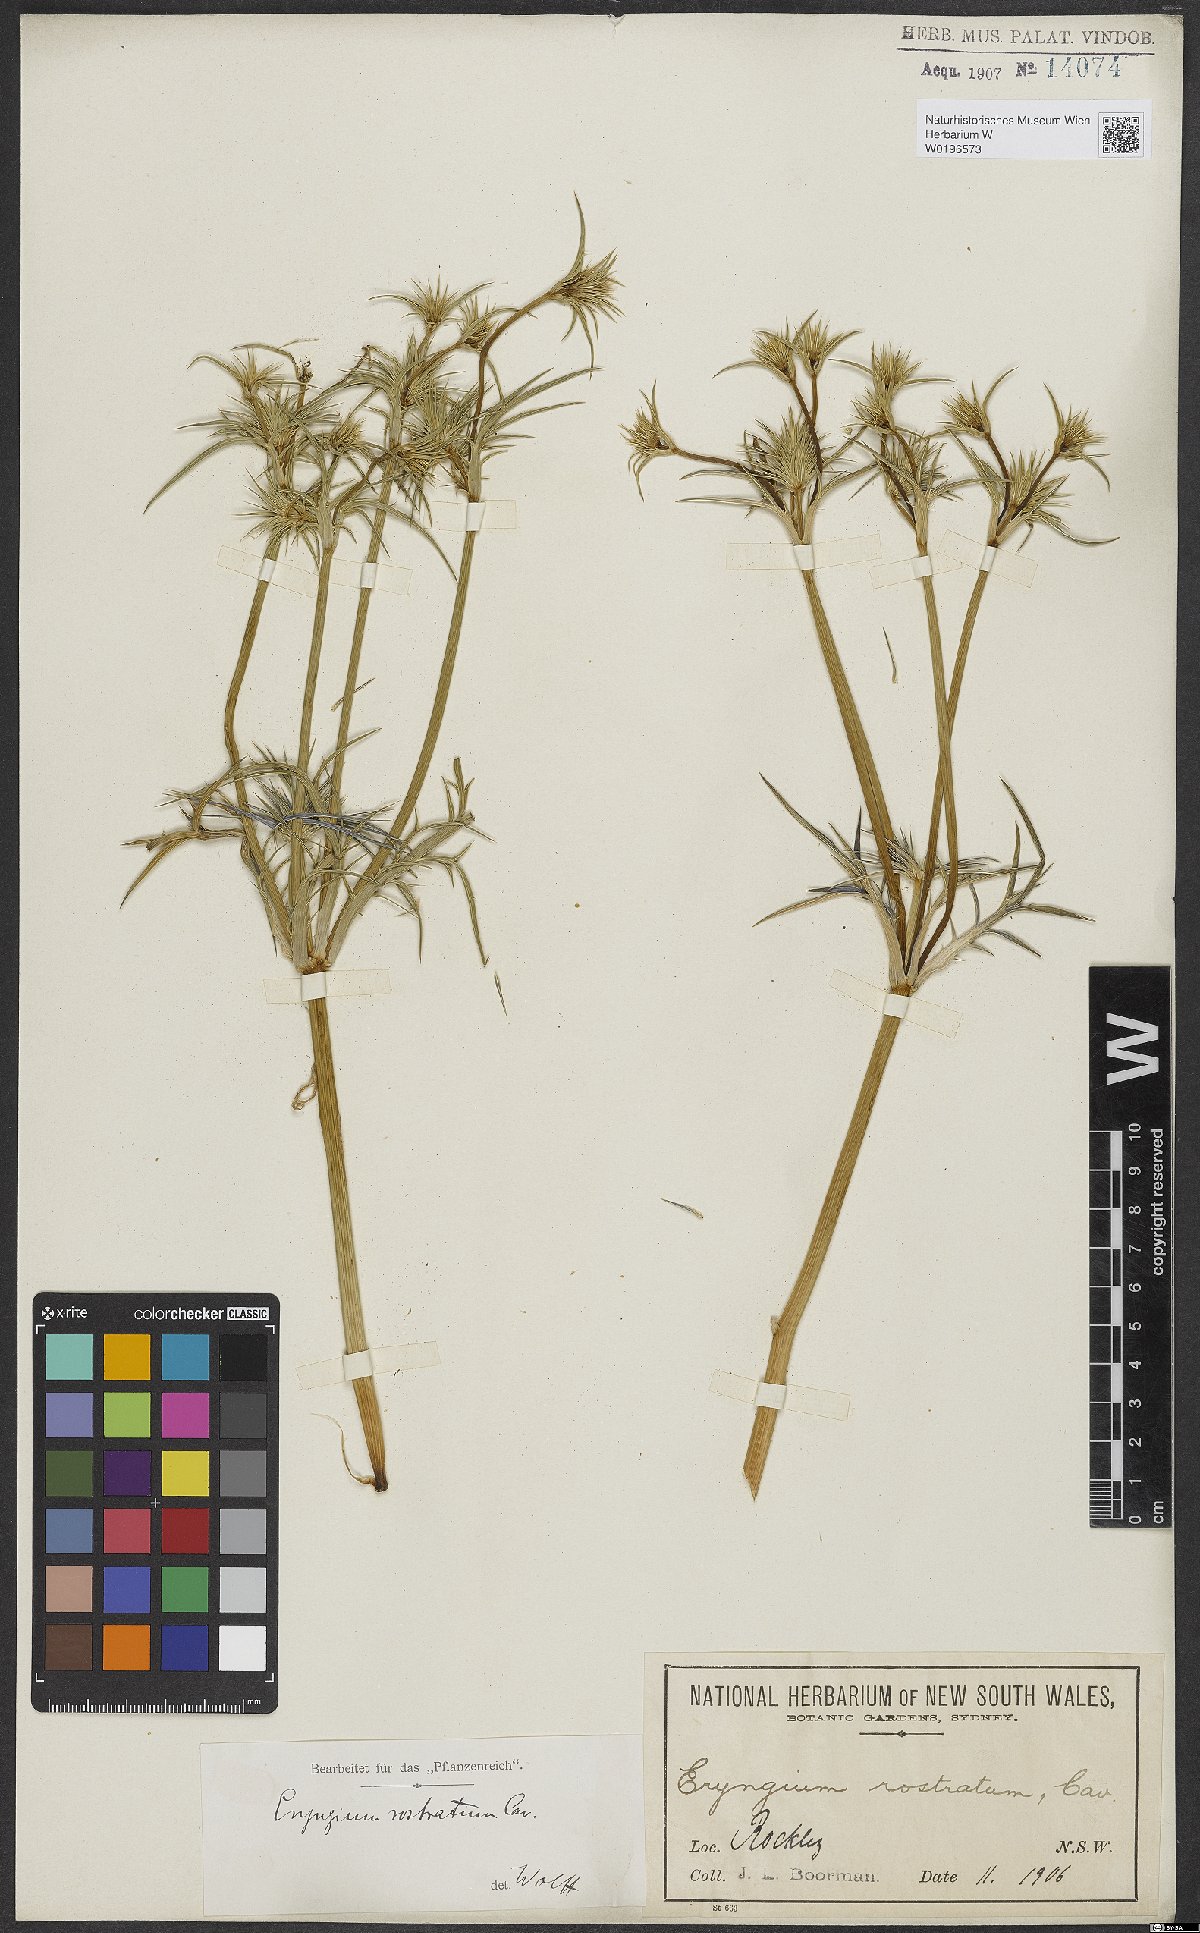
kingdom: Plantae
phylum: Tracheophyta
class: Magnoliopsida
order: Apiales
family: Apiaceae
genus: Eryngium
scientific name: Eryngium rostratum
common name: Blue eryngo
